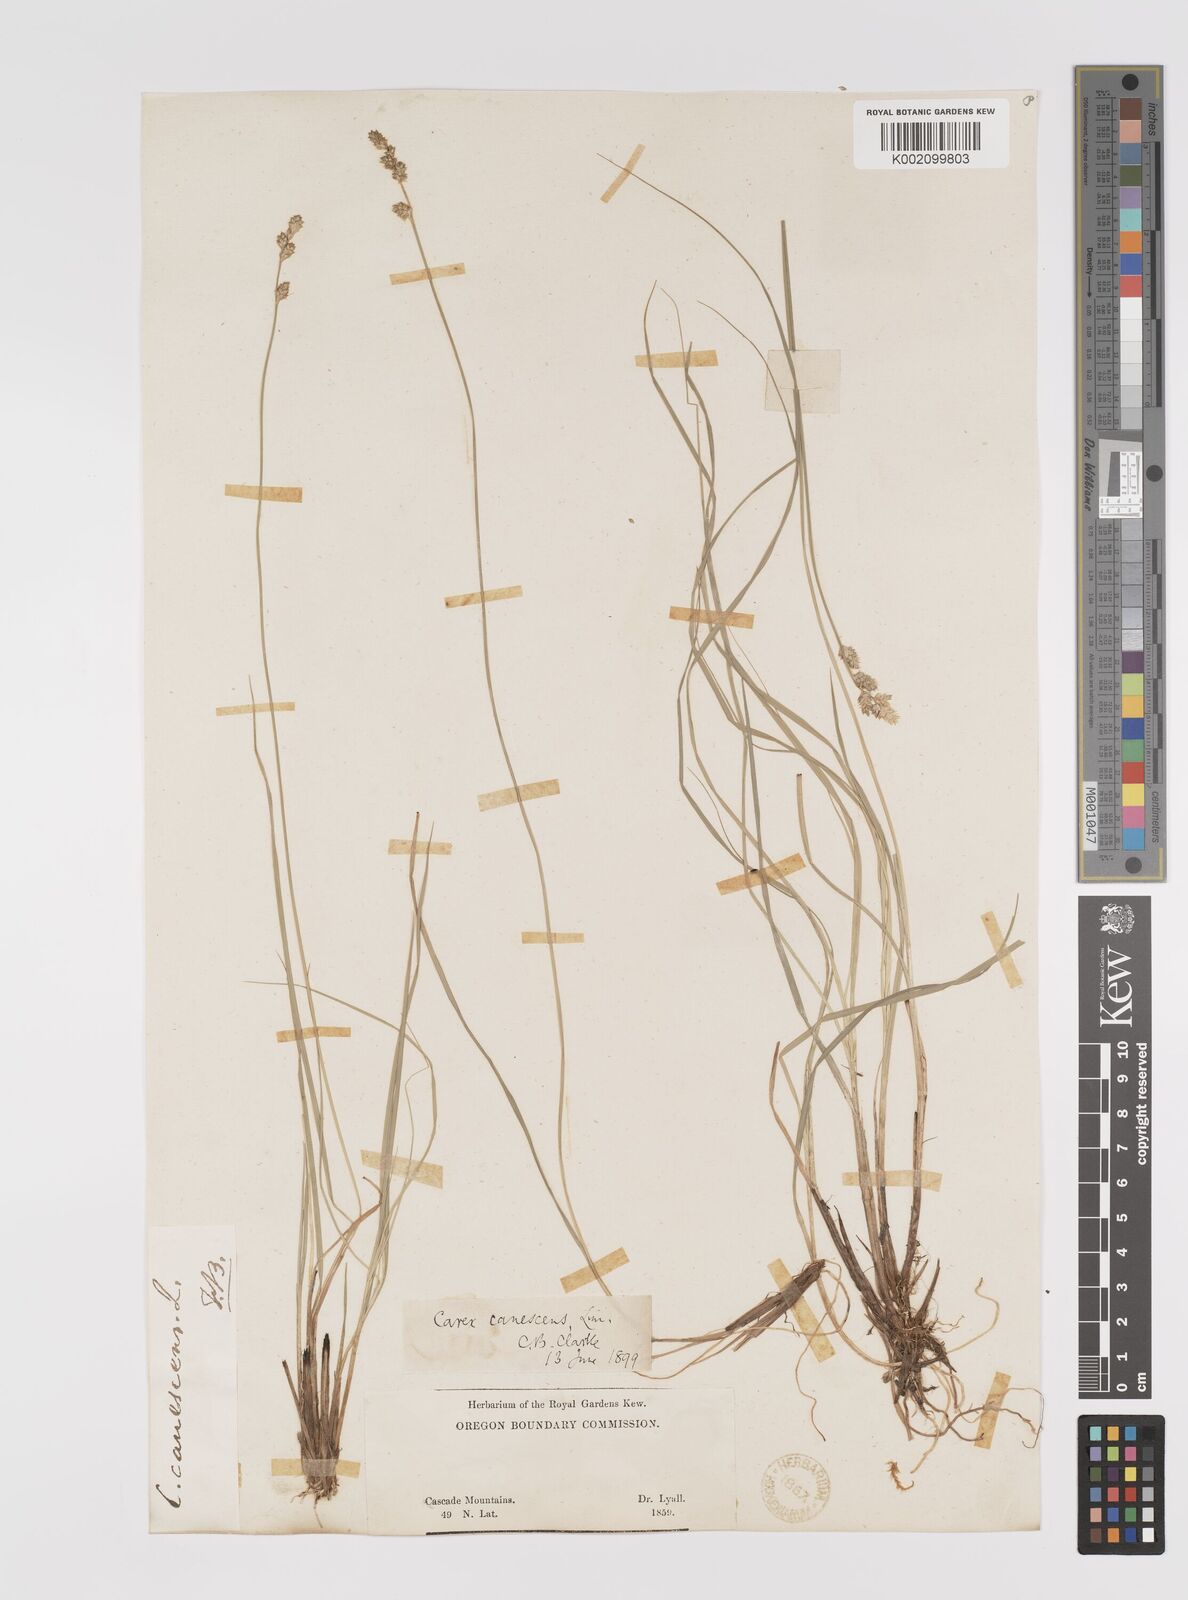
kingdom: Plantae
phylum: Tracheophyta
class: Liliopsida
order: Poales
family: Cyperaceae
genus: Carex
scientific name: Carex curta
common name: White sedge
